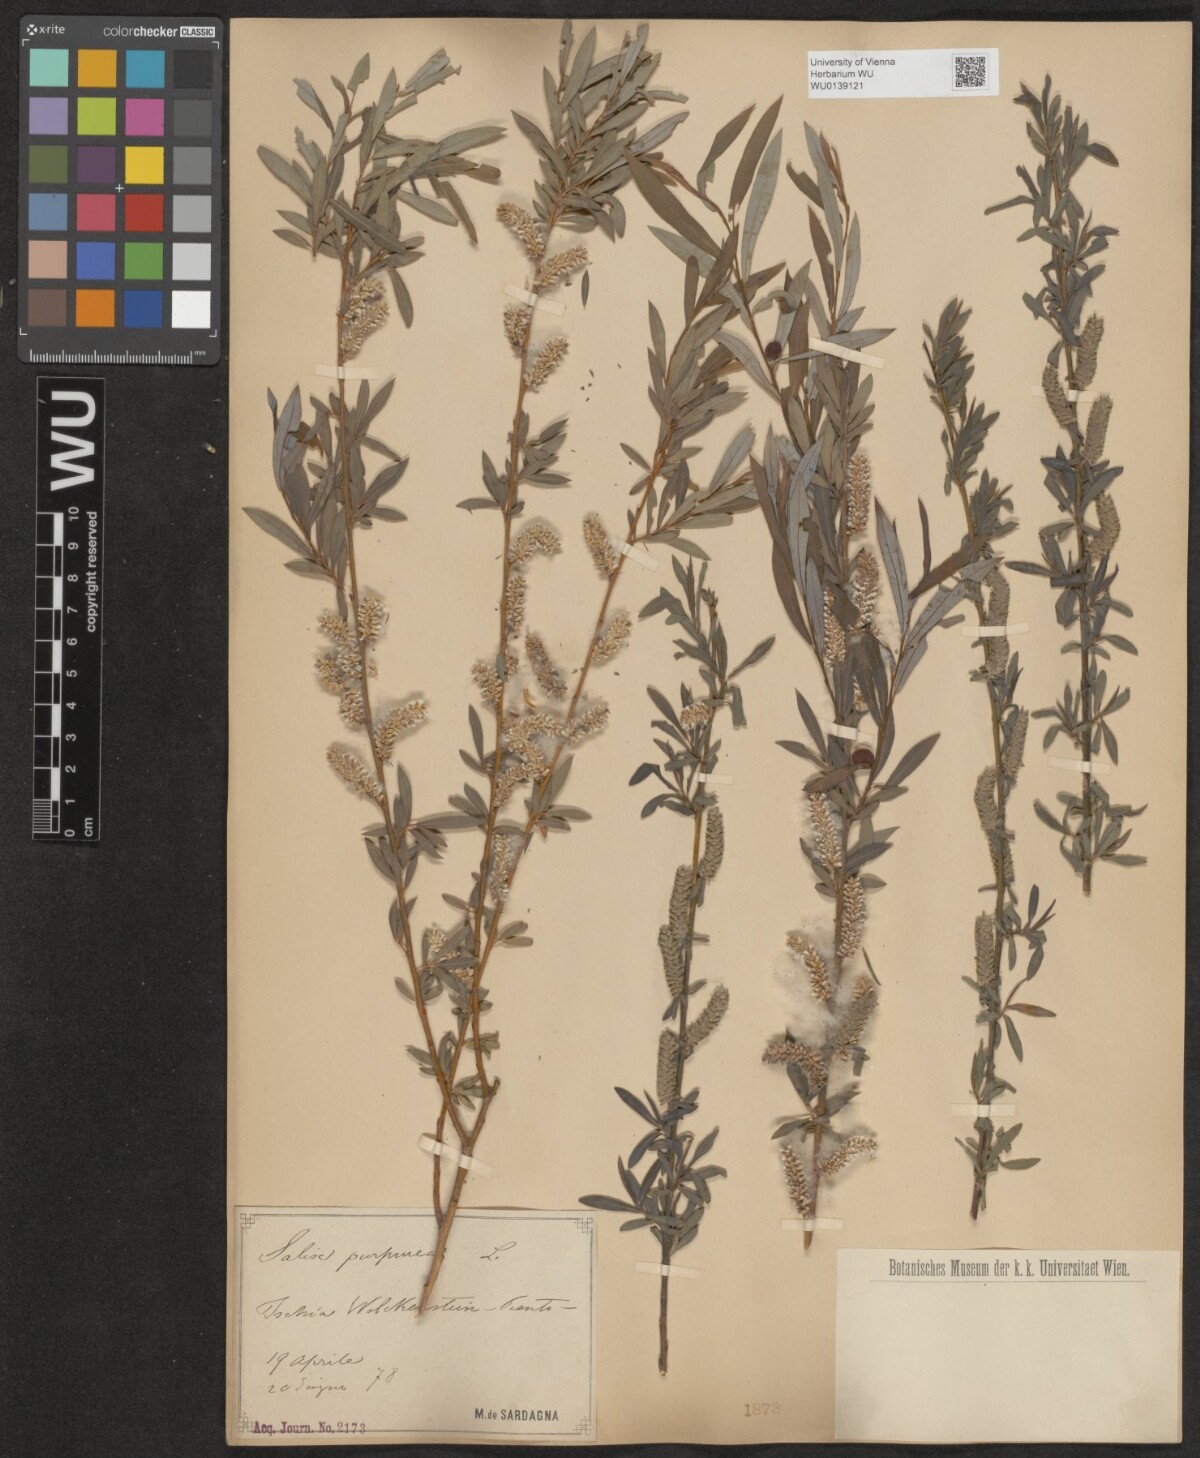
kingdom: Plantae
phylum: Tracheophyta
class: Magnoliopsida
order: Malpighiales
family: Salicaceae
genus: Salix
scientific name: Salix purpurea
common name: Purple willow
